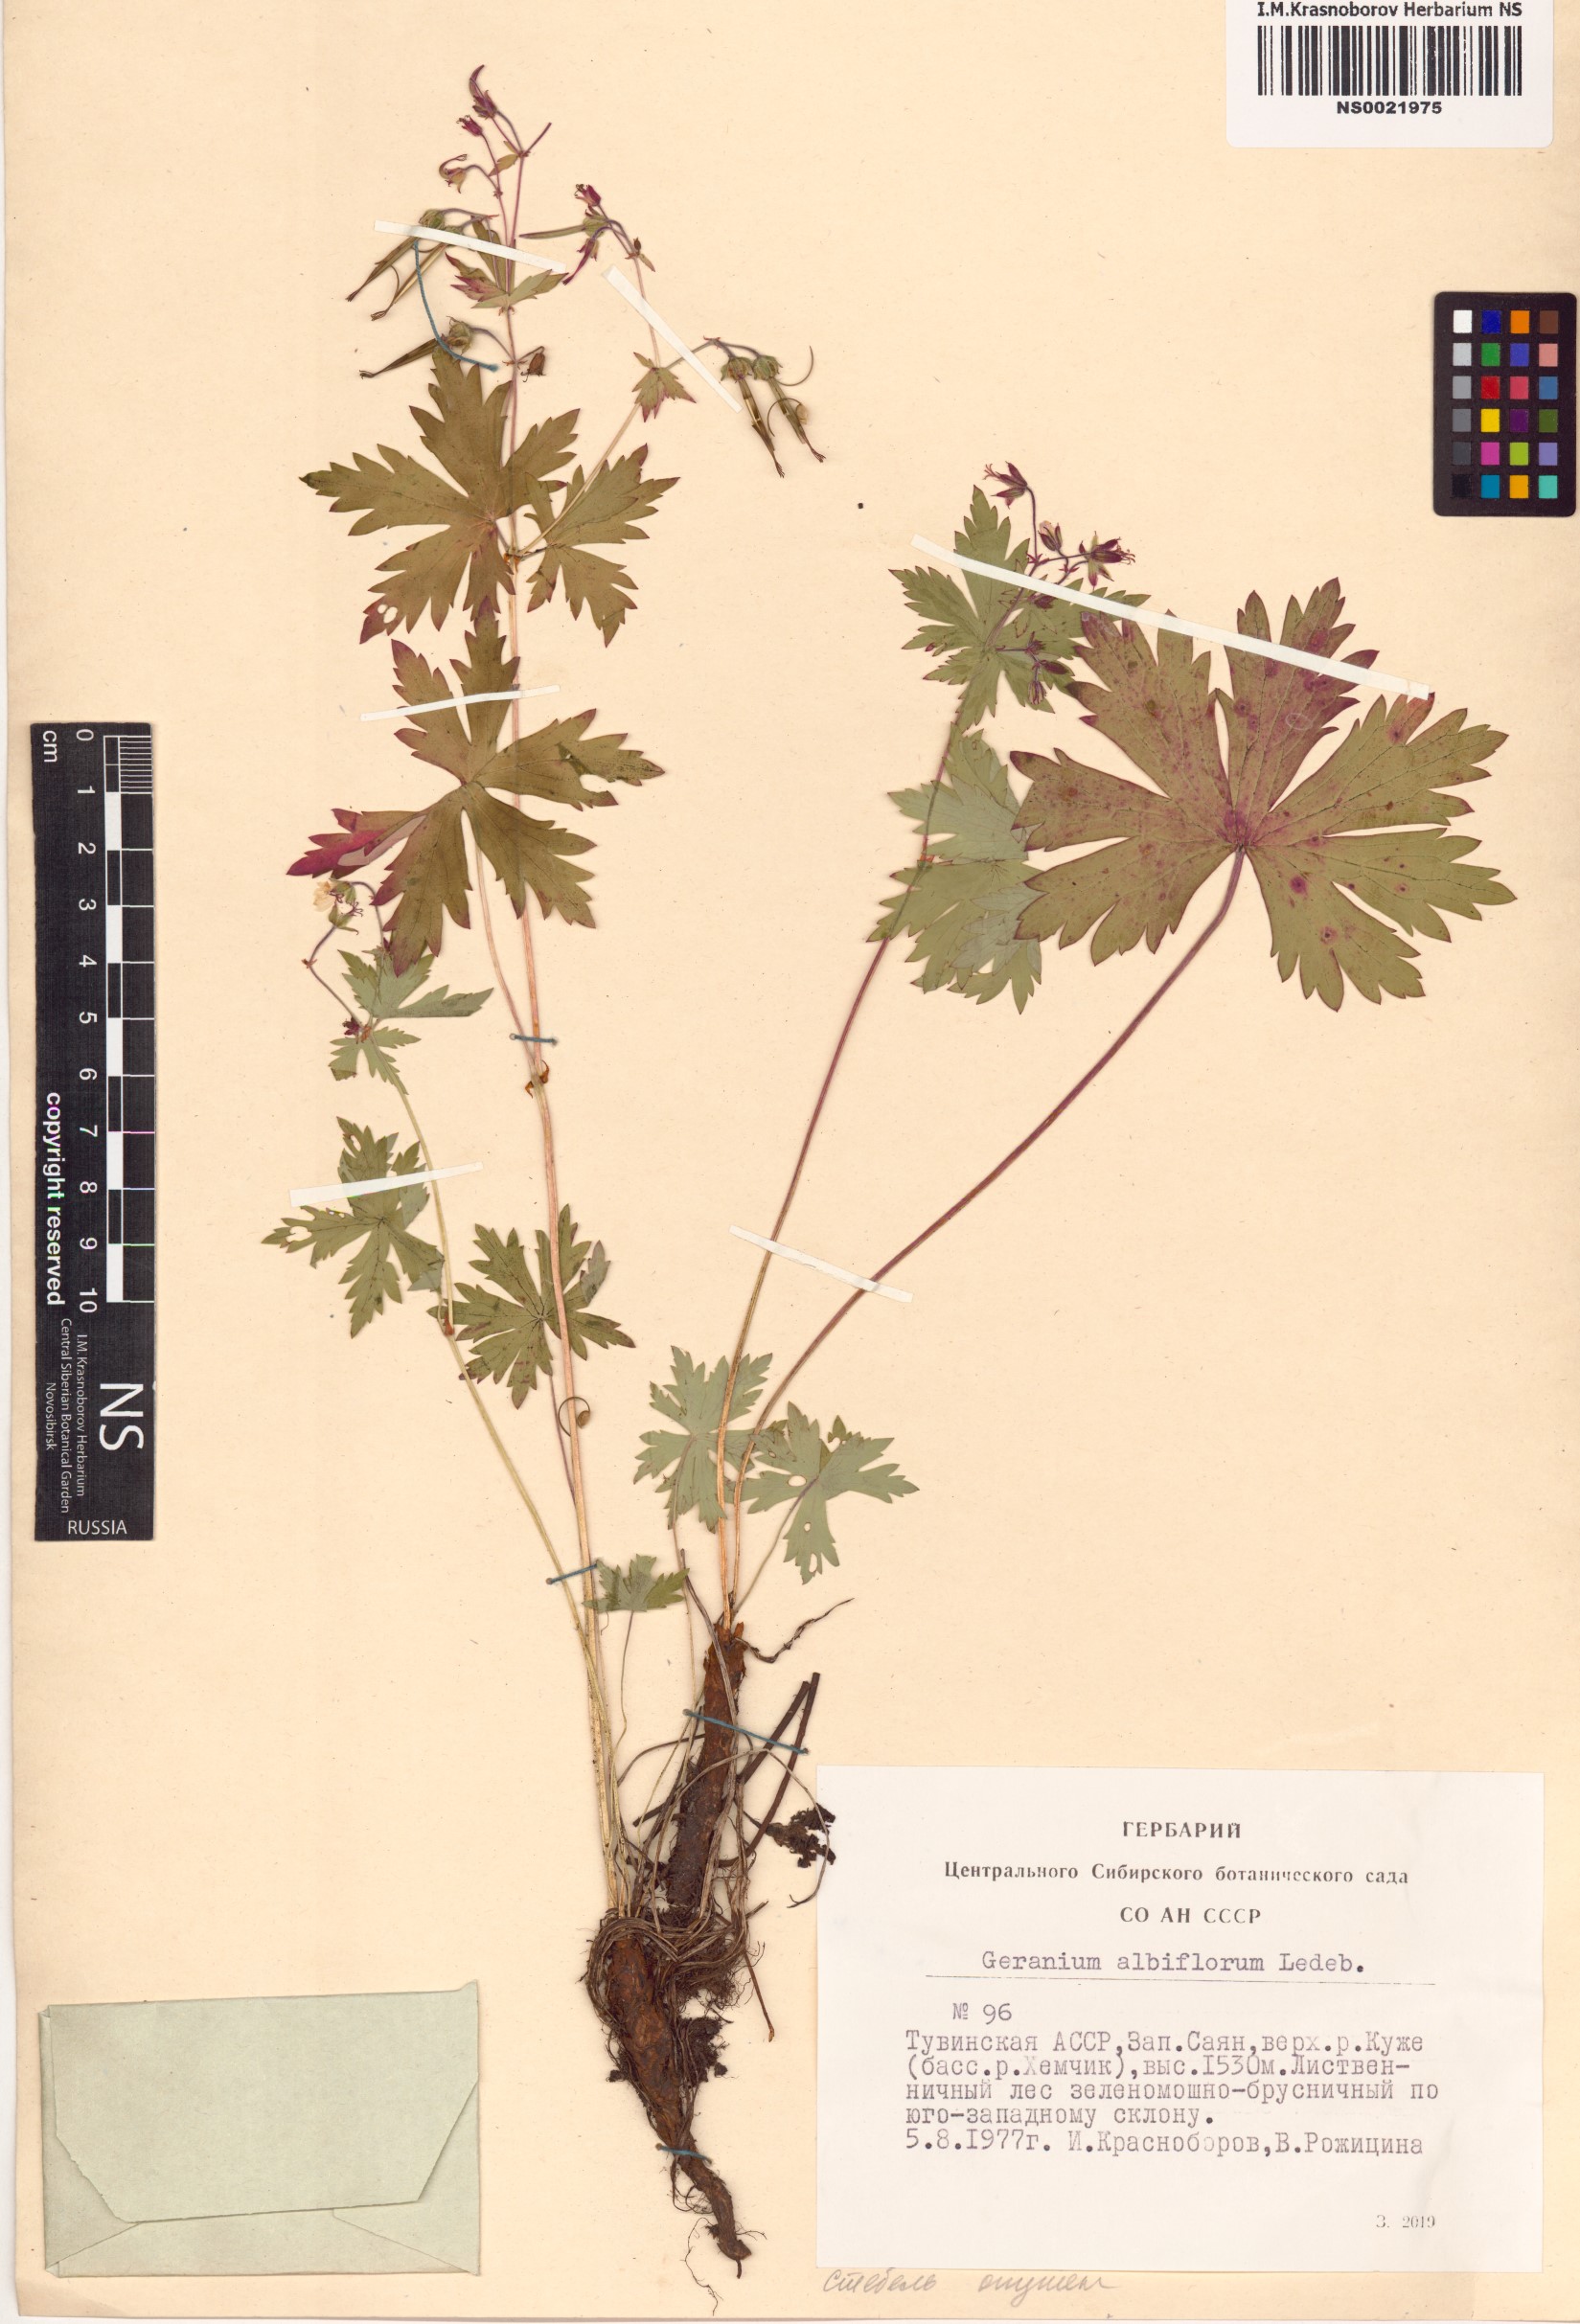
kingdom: Plantae
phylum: Tracheophyta
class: Magnoliopsida
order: Geraniales
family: Geraniaceae
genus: Geranium
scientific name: Geranium albiflorum
